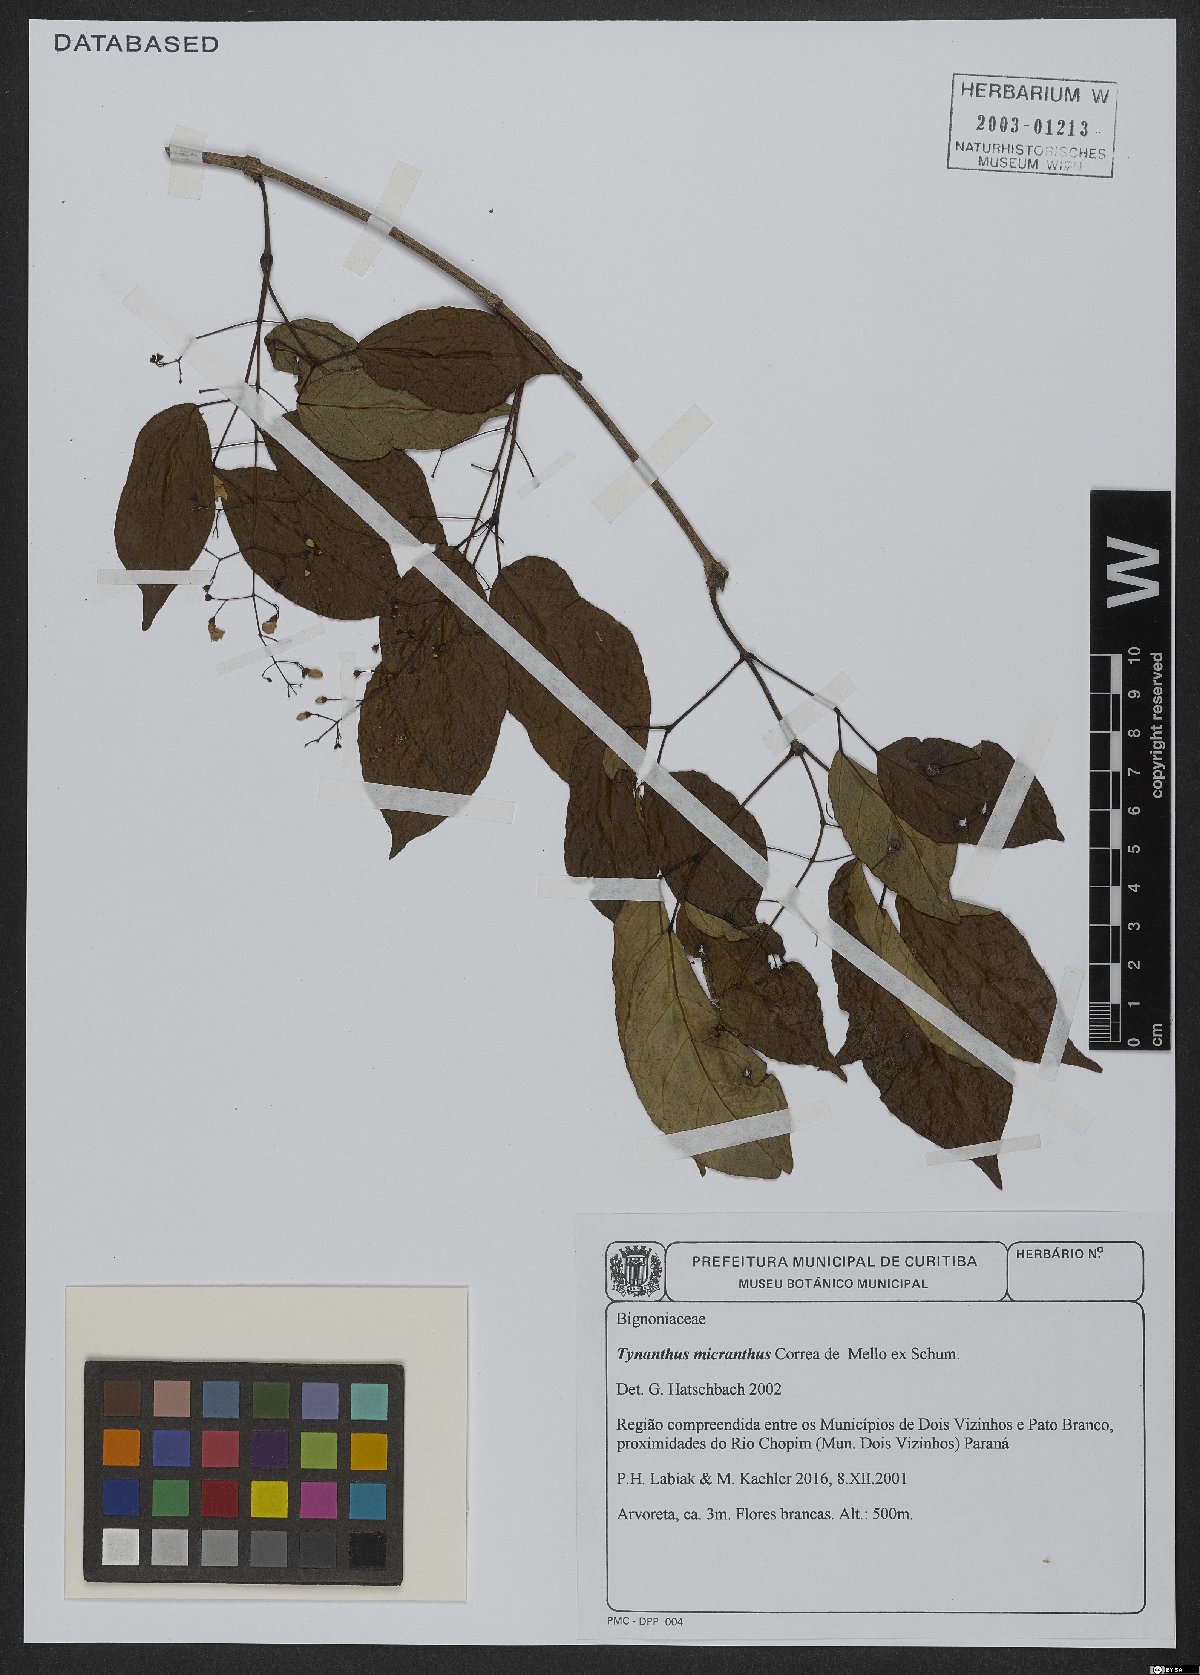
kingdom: Plantae
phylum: Tracheophyta
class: Magnoliopsida
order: Lamiales
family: Bignoniaceae
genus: Tynanthus
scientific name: Tynanthus micranthus
